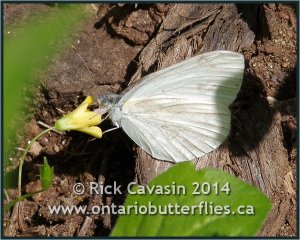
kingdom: Animalia
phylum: Arthropoda
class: Insecta
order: Lepidoptera
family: Pieridae
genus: Pieris
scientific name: Pieris oleracea
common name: Mustard White
